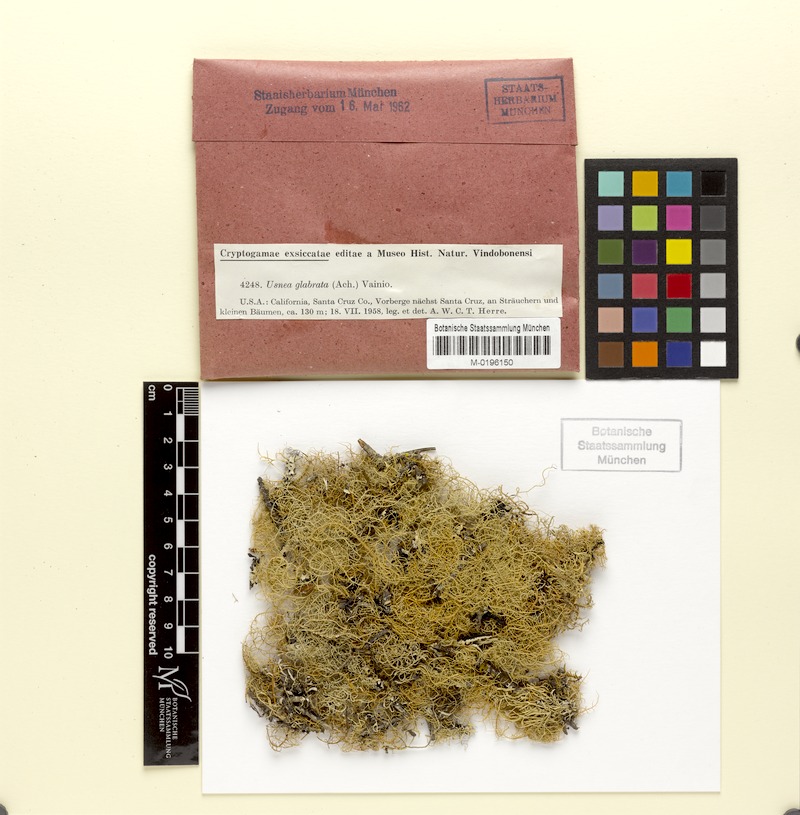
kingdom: Fungi
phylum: Ascomycota
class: Lecanoromycetes
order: Lecanorales
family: Parmeliaceae
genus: Usnea
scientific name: Usnea glabrata
